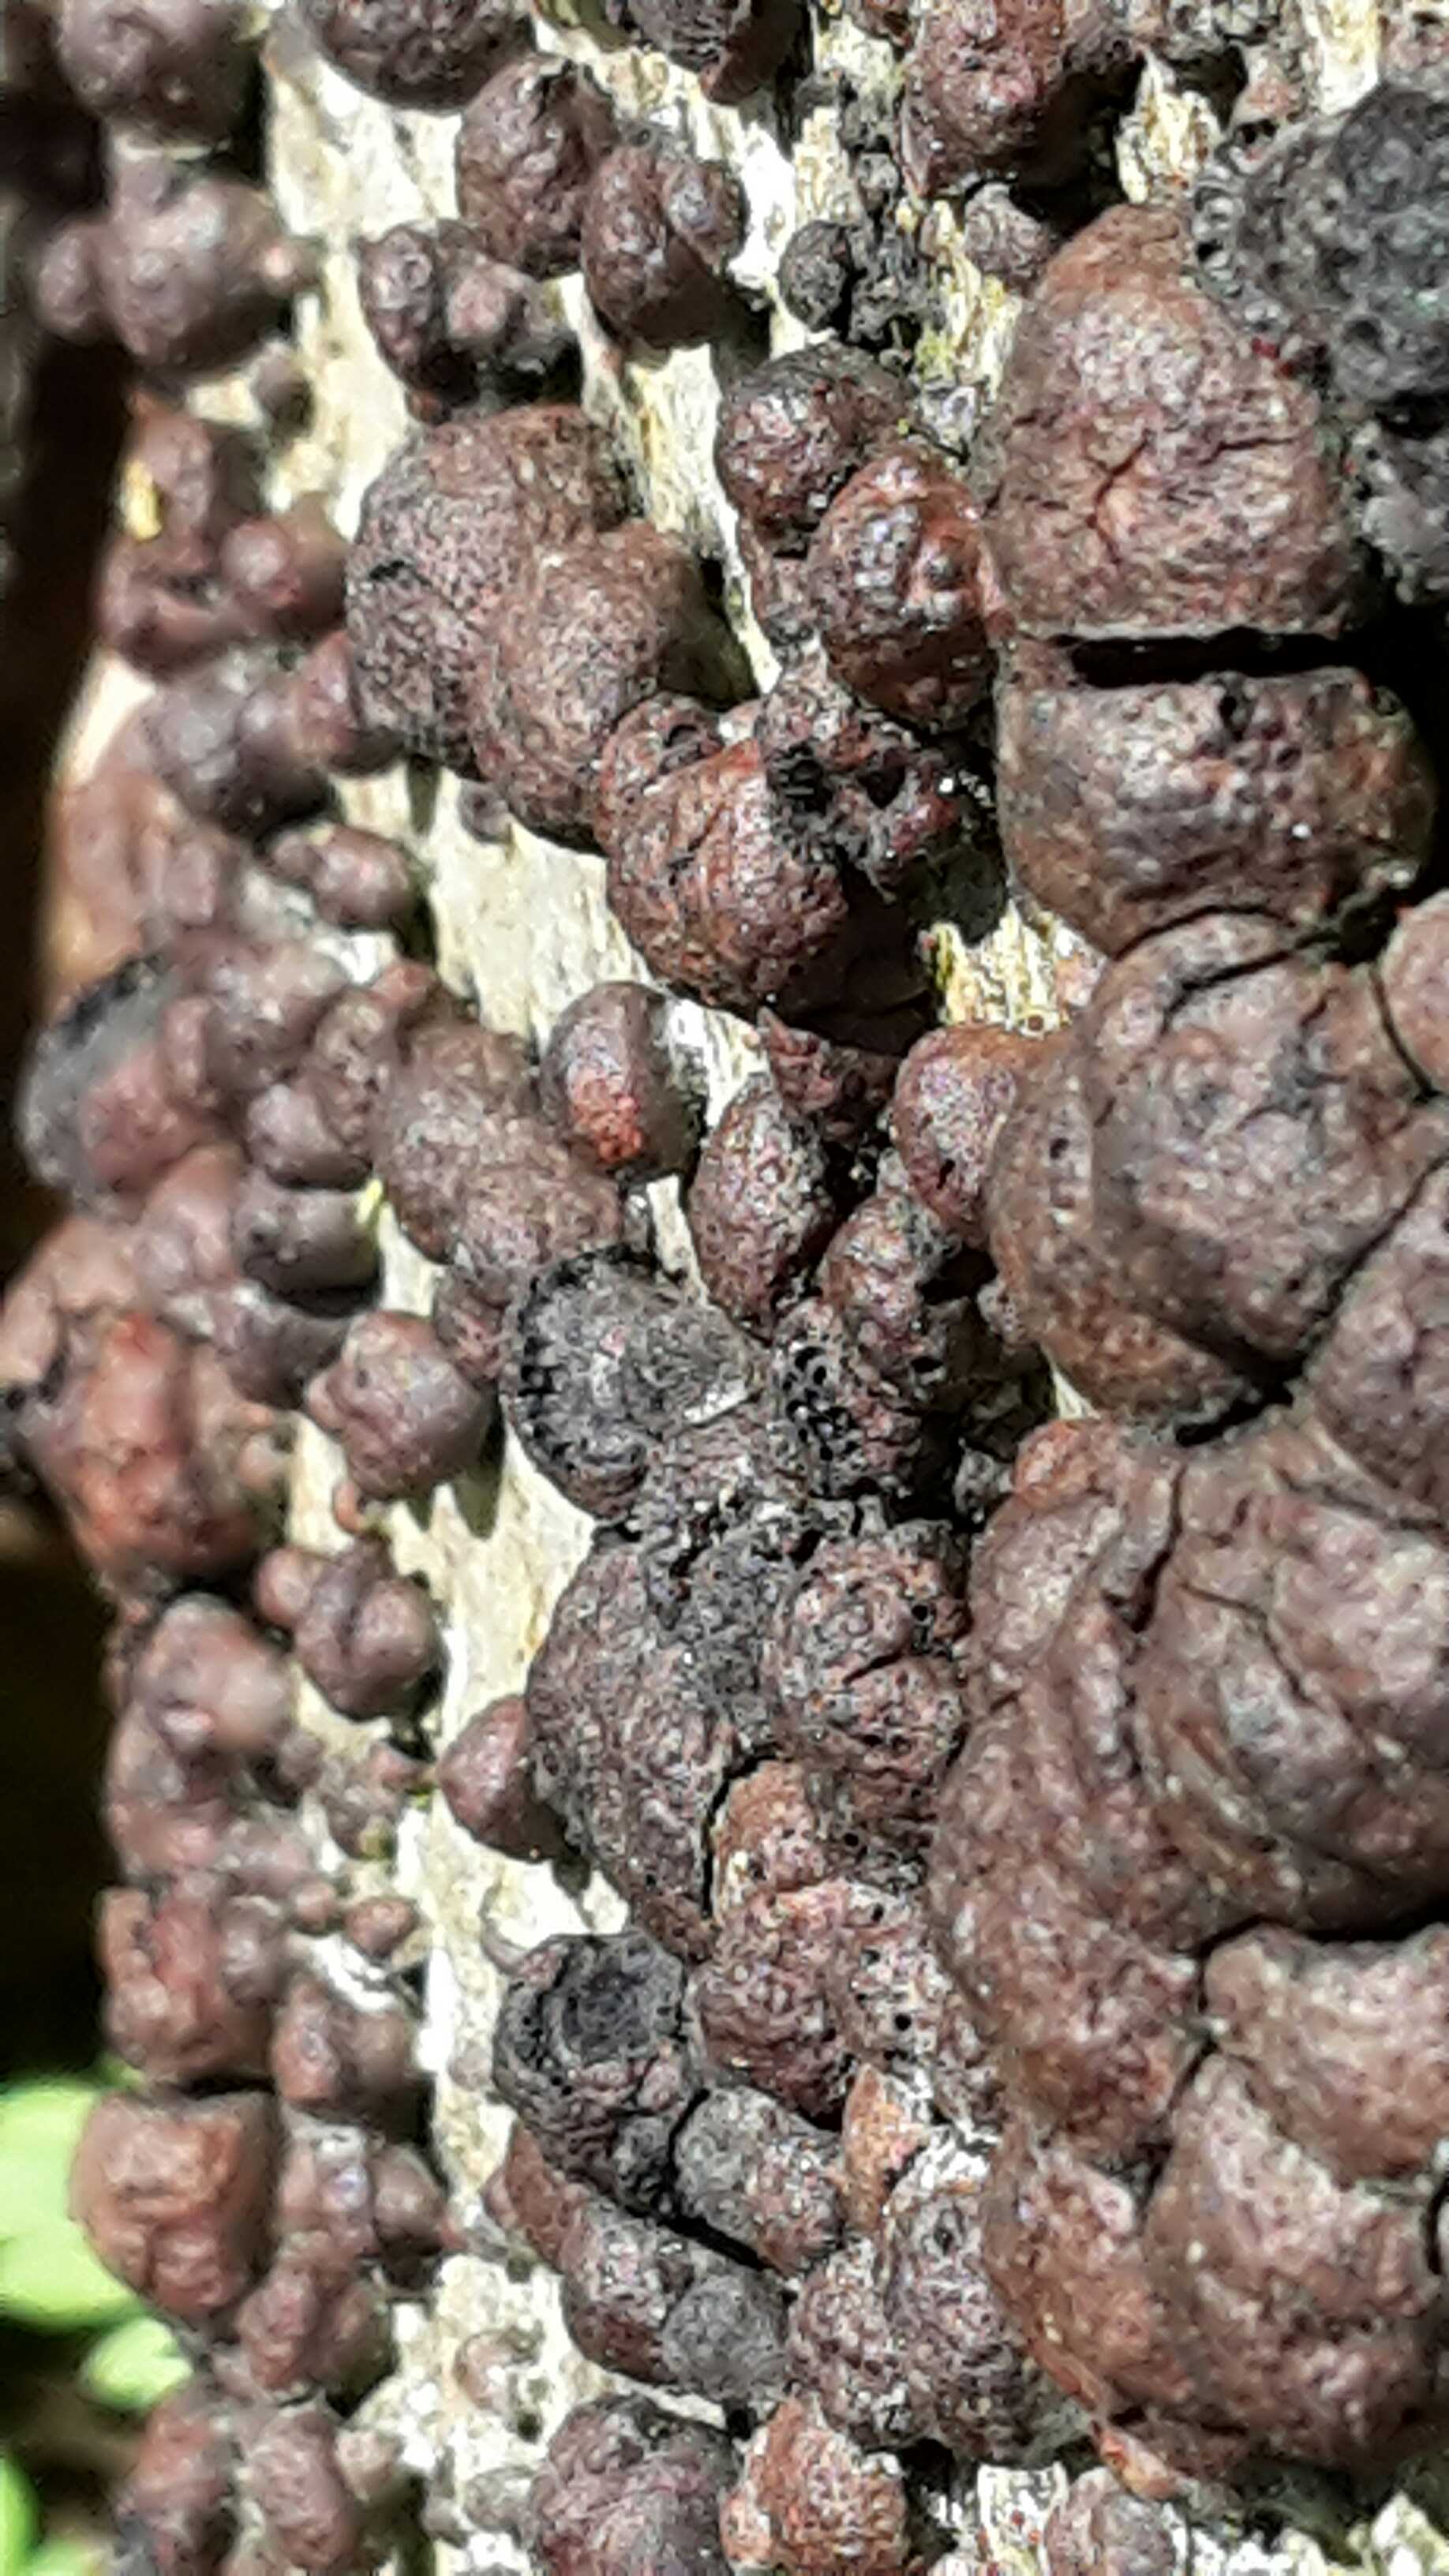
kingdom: Fungi
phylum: Ascomycota
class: Sordariomycetes
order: Xylariales
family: Hypoxylaceae
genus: Hypoxylon
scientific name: Hypoxylon fragiforme
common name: kuljordbær
